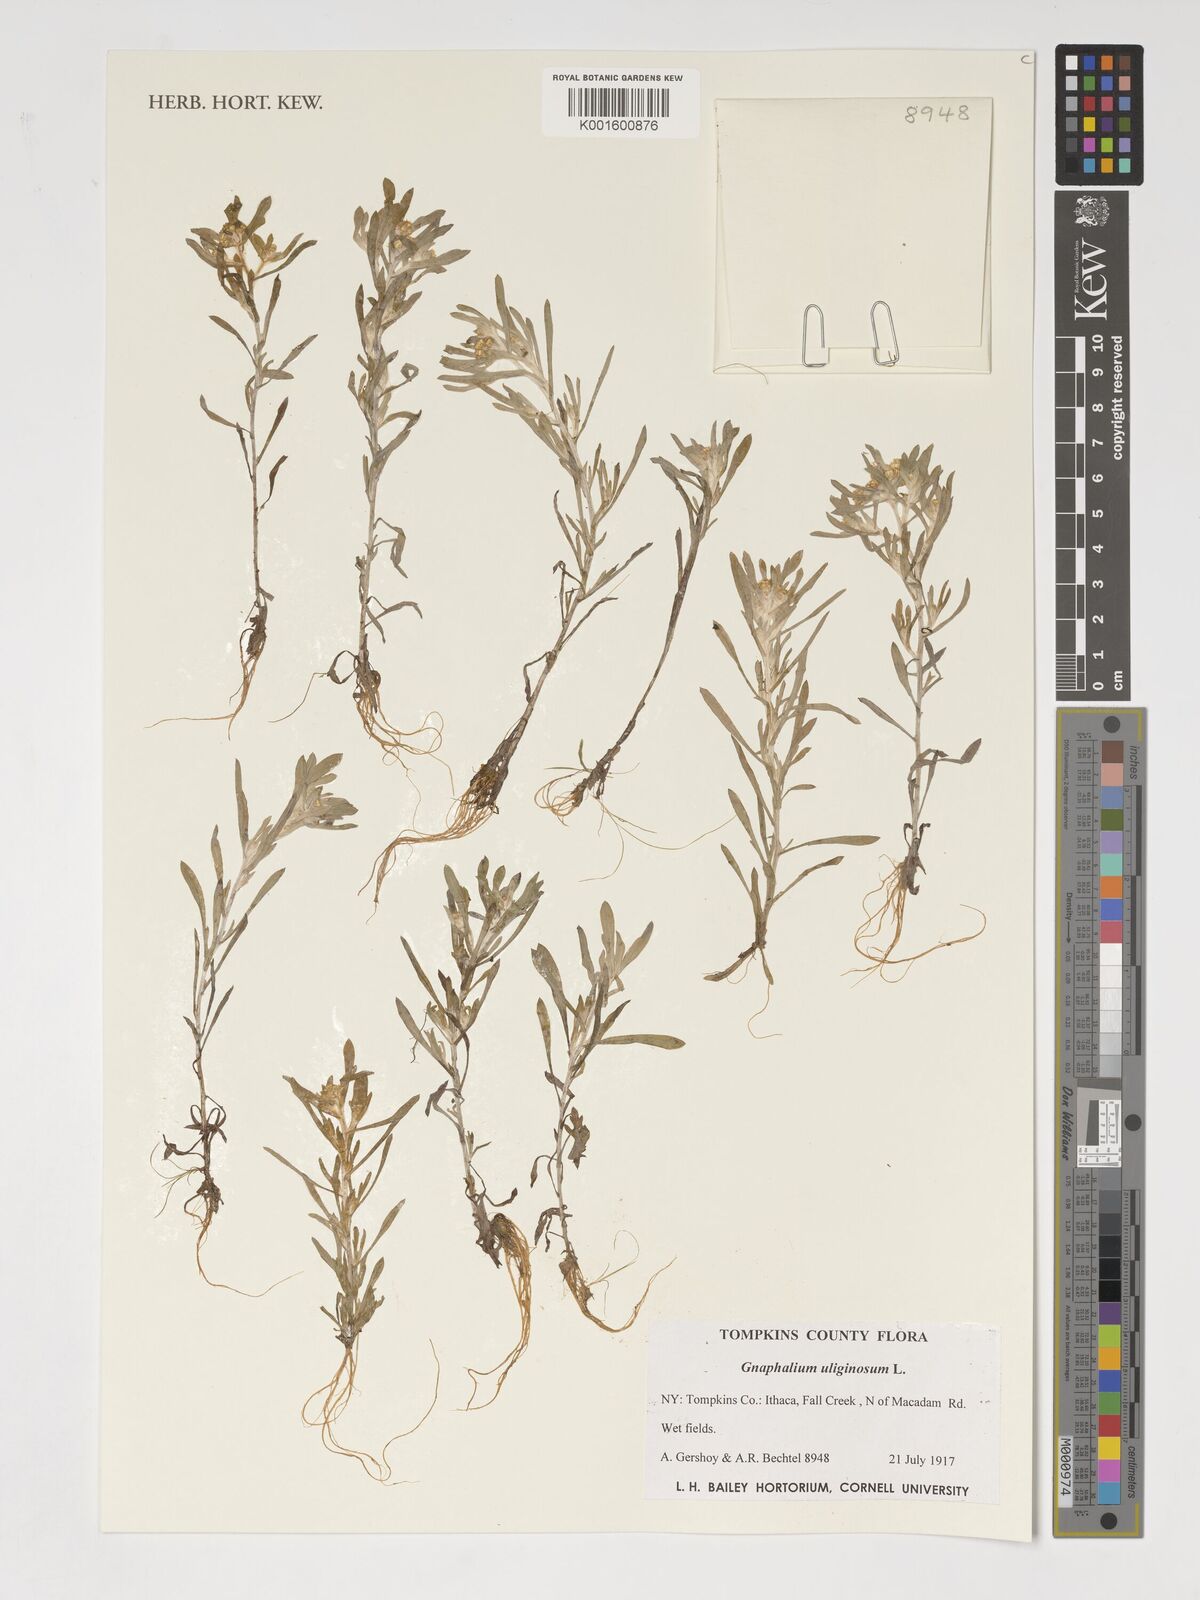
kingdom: Plantae
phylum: Tracheophyta
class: Magnoliopsida
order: Asterales
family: Asteraceae
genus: Gnaphalium
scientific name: Gnaphalium uliginosum
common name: Marsh cudweed
